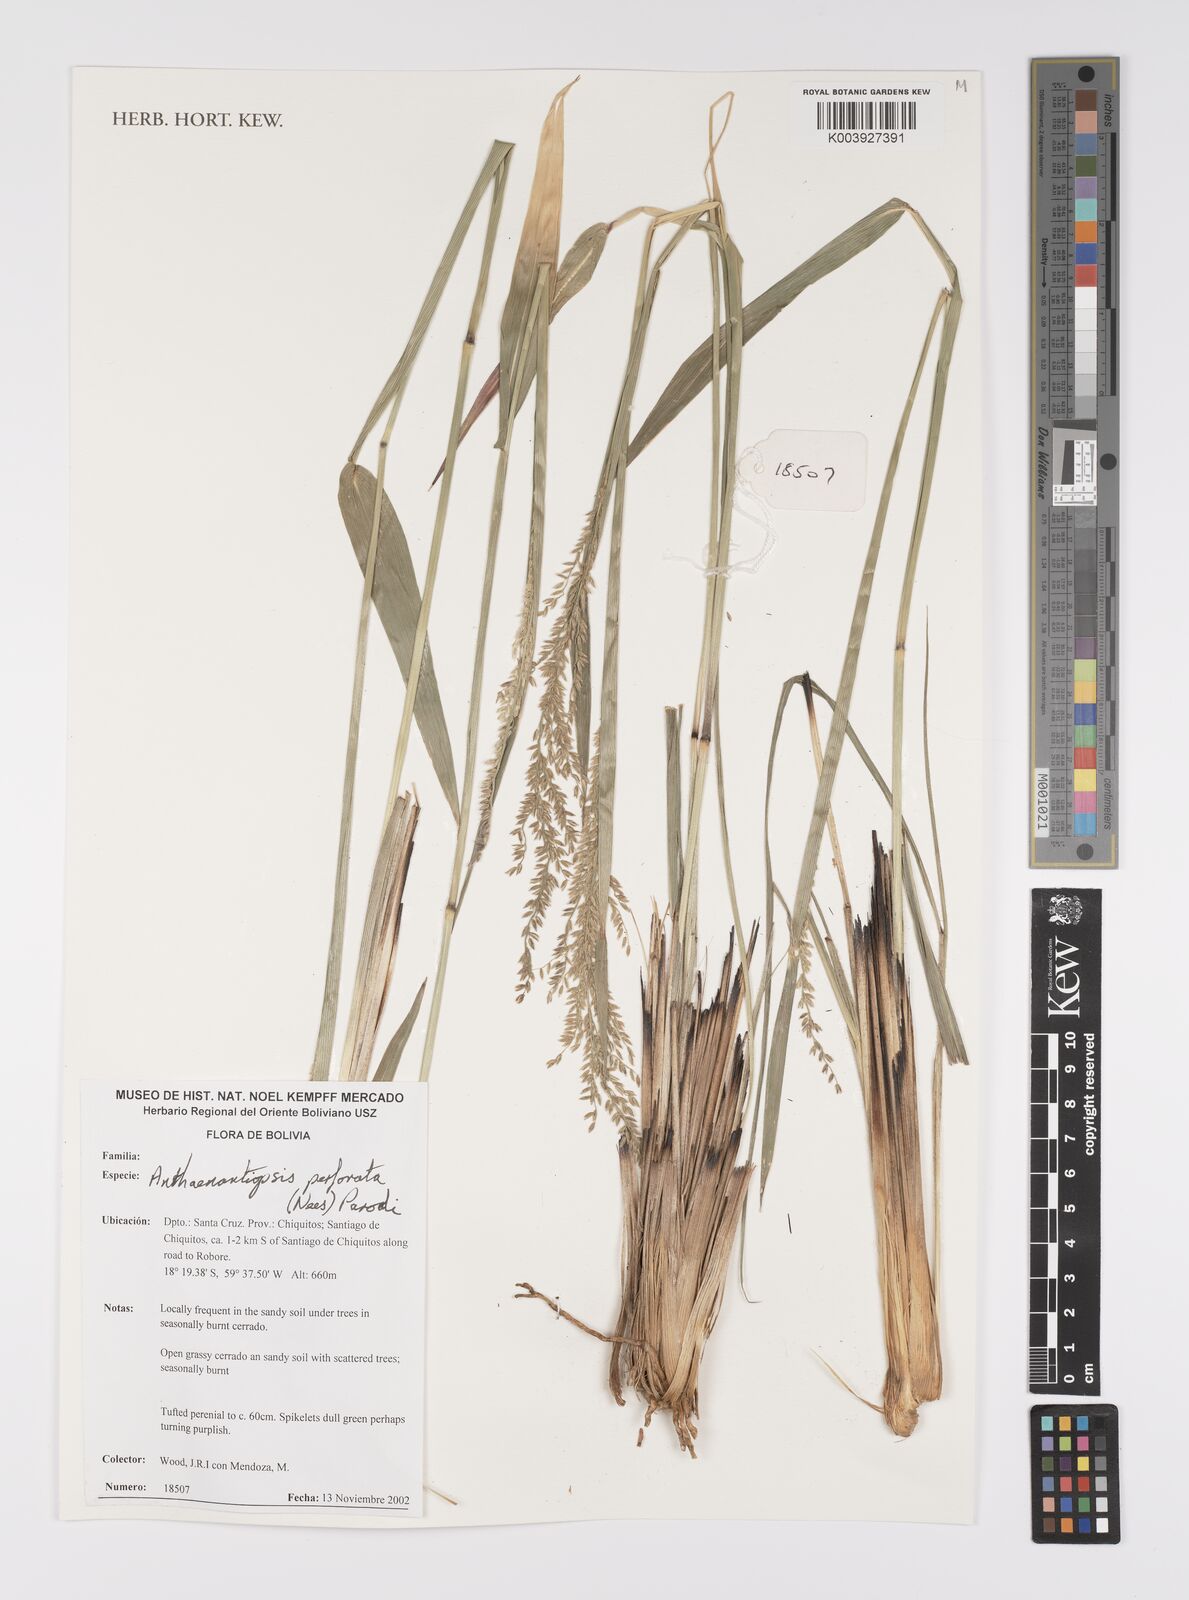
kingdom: Plantae
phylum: Tracheophyta
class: Liliopsida
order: Poales
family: Poaceae
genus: Anthaenantiopsis
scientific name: Anthaenantiopsis perforata
